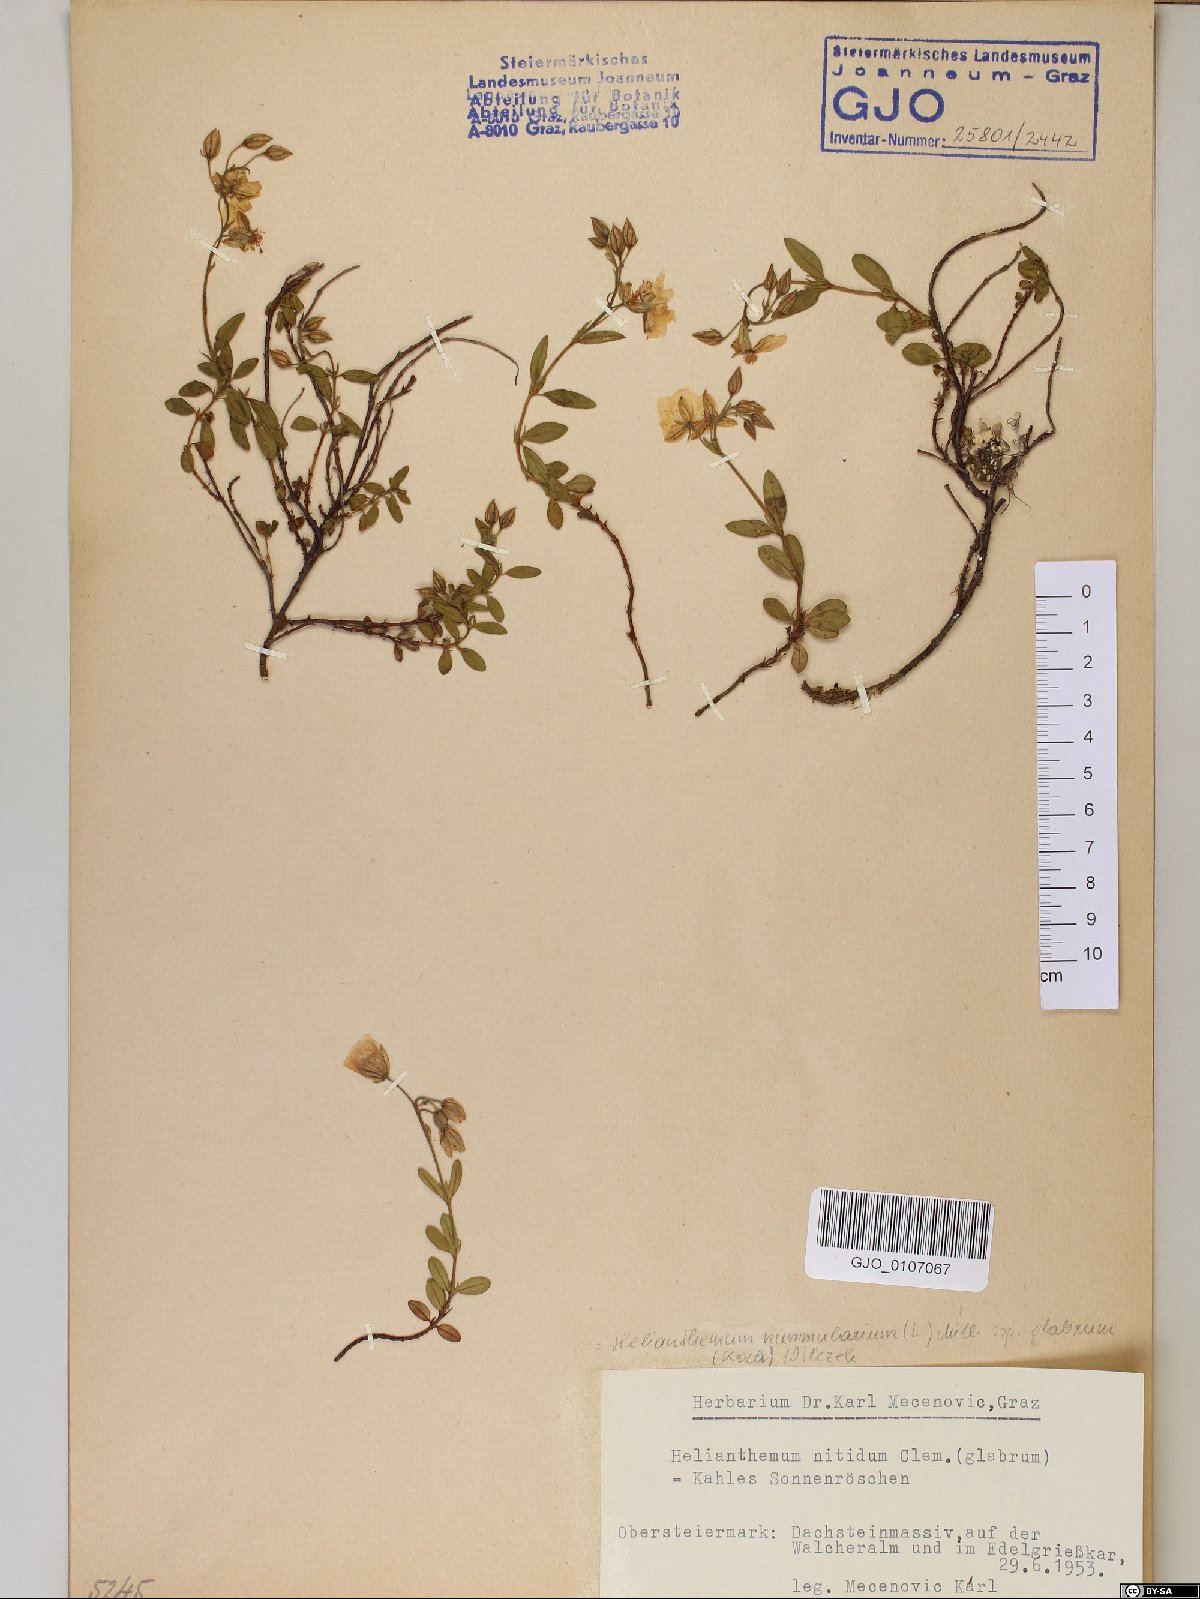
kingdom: Plantae
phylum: Tracheophyta
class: Magnoliopsida
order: Malvales
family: Cistaceae
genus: Helianthemum
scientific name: Helianthemum nummularium
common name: Common rock-rose
